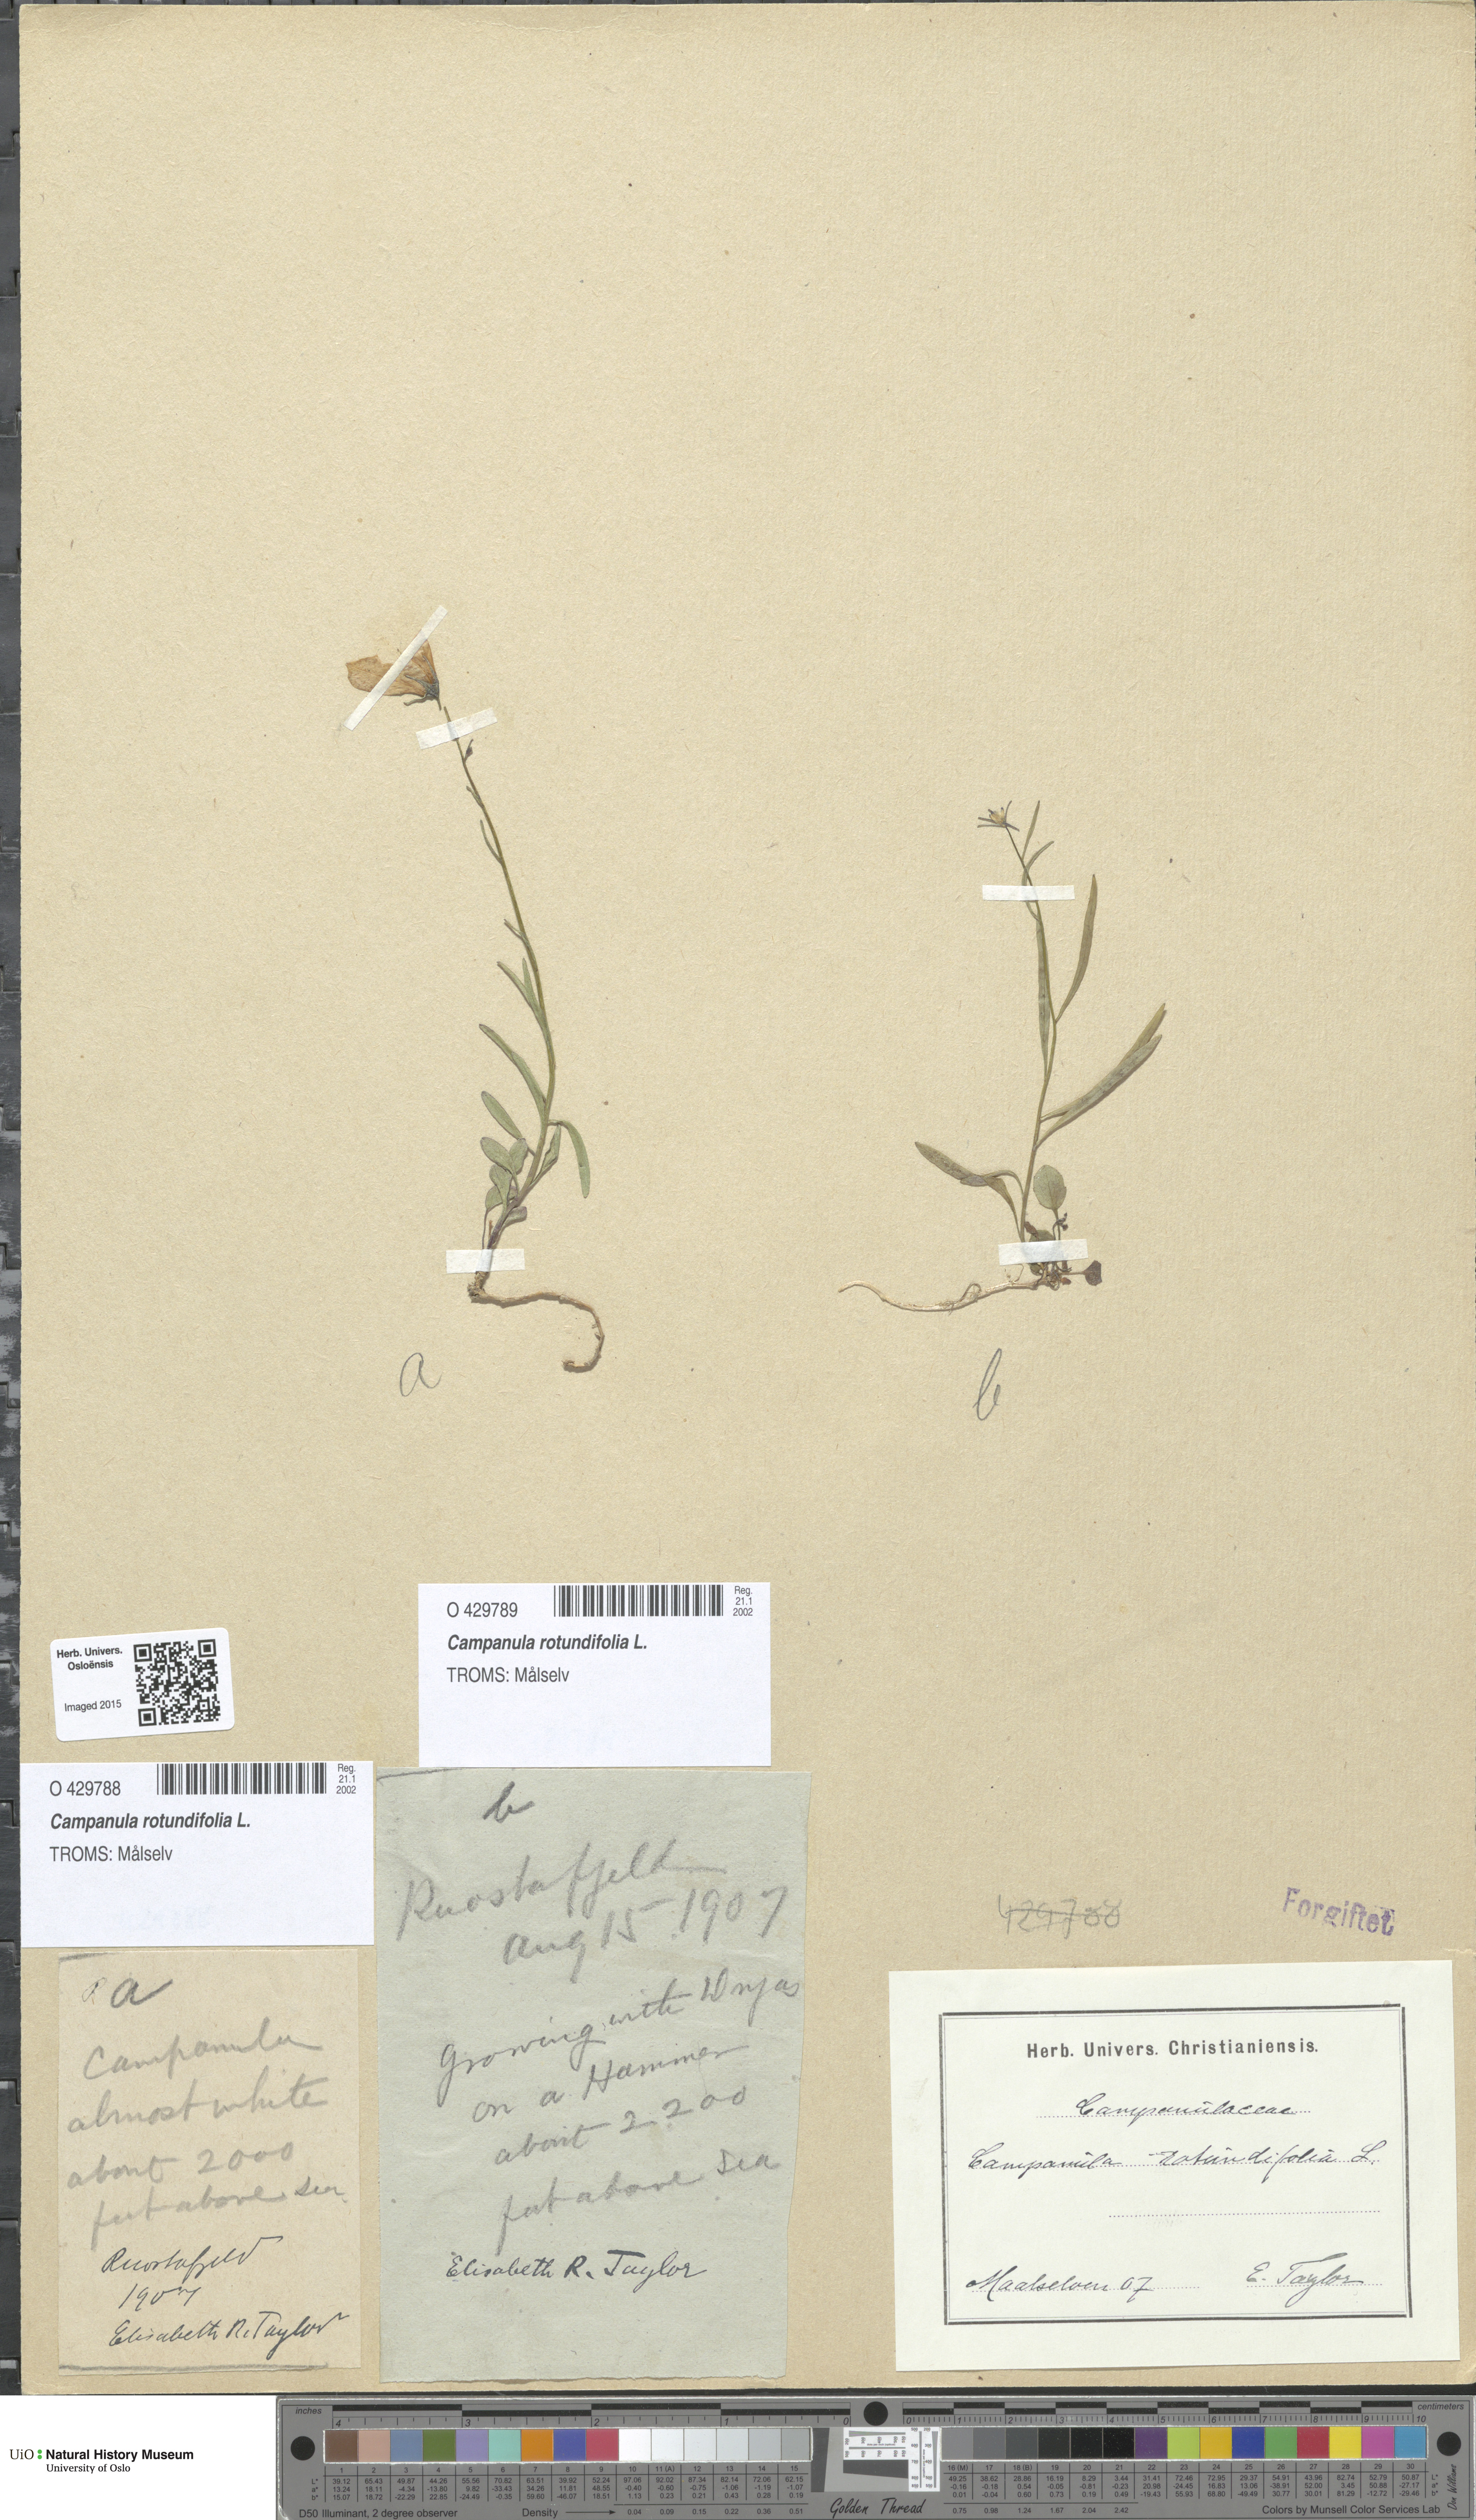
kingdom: Plantae
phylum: Tracheophyta
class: Magnoliopsida
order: Asterales
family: Campanulaceae
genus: Campanula
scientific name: Campanula rotundifolia
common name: Harebell
